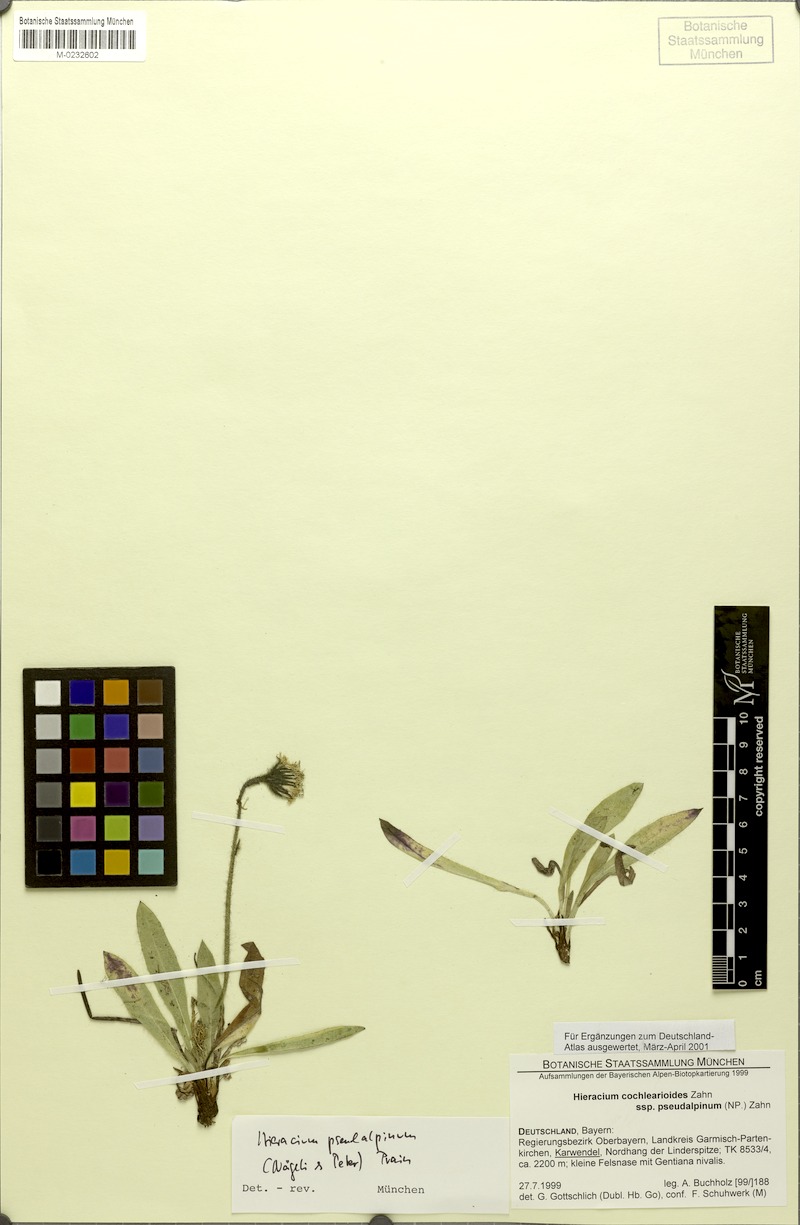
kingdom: Plantae
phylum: Tracheophyta
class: Magnoliopsida
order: Asterales
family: Asteraceae
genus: Hieracium
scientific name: Hieracium pseudalpinum
